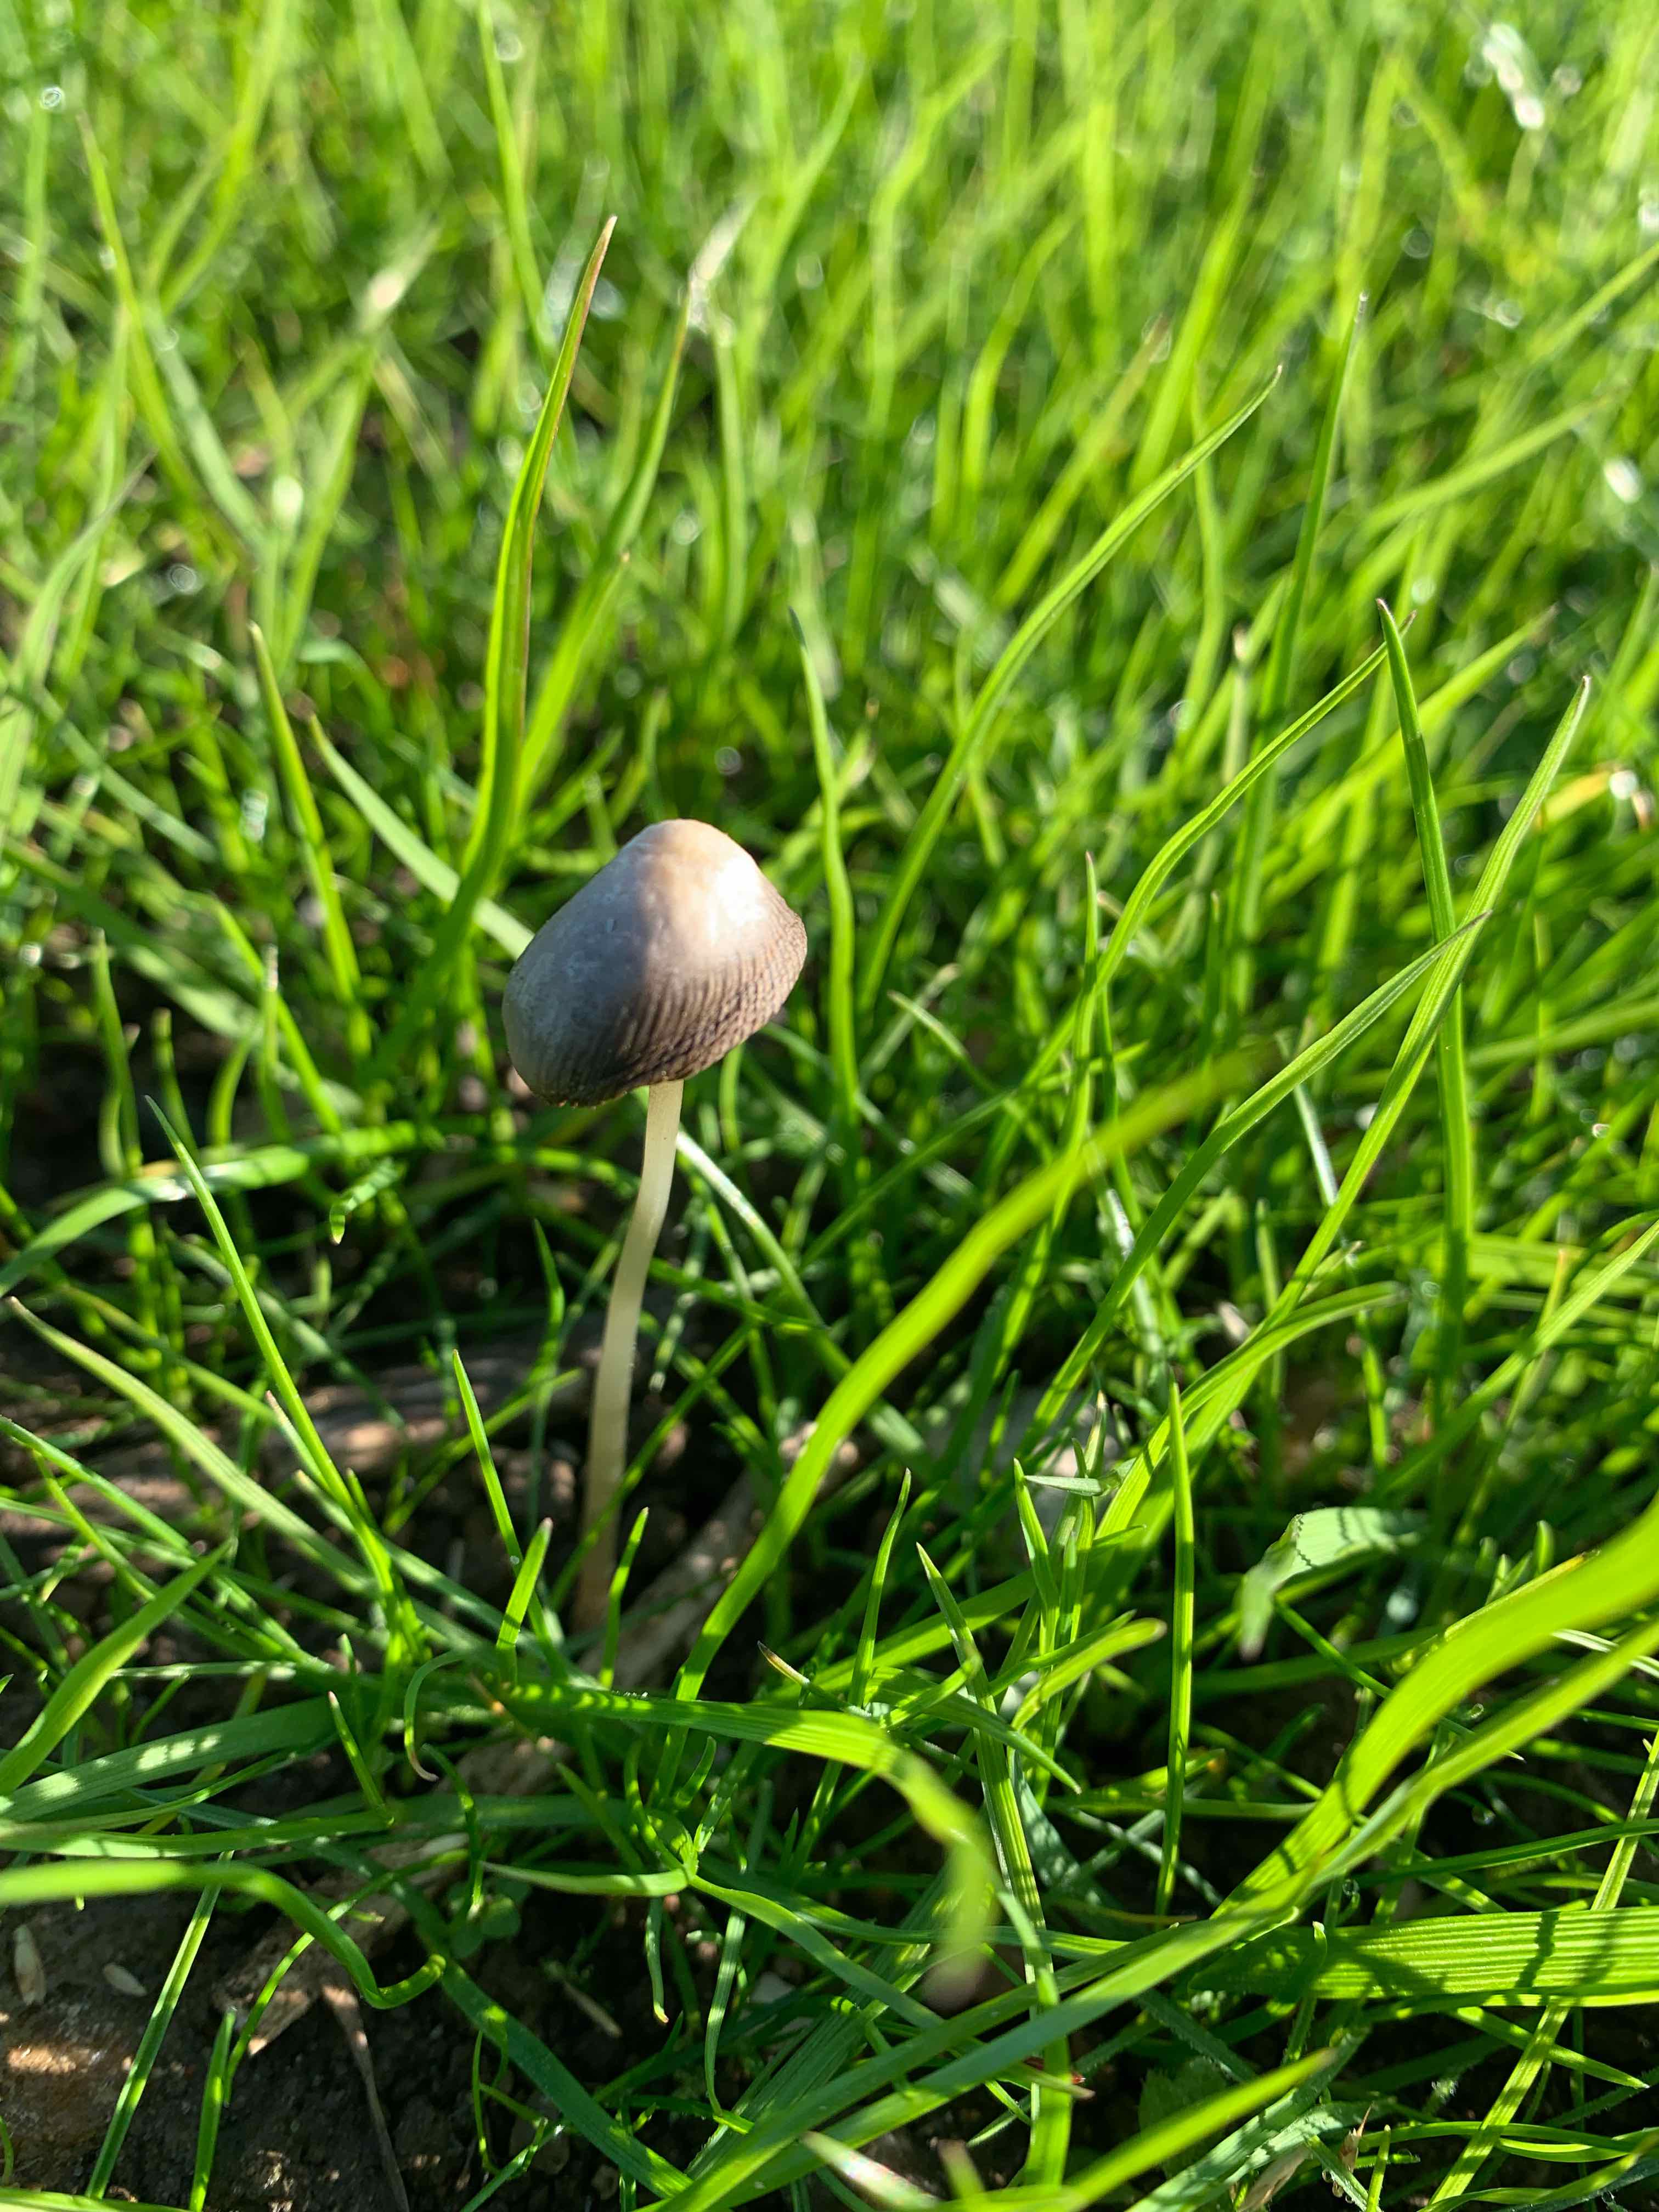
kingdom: Fungi
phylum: Basidiomycota
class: Agaricomycetes
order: Agaricales
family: Hymenogastraceae
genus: Psilocybe
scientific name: Psilocybe semilanceata
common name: spids nøgenhat
